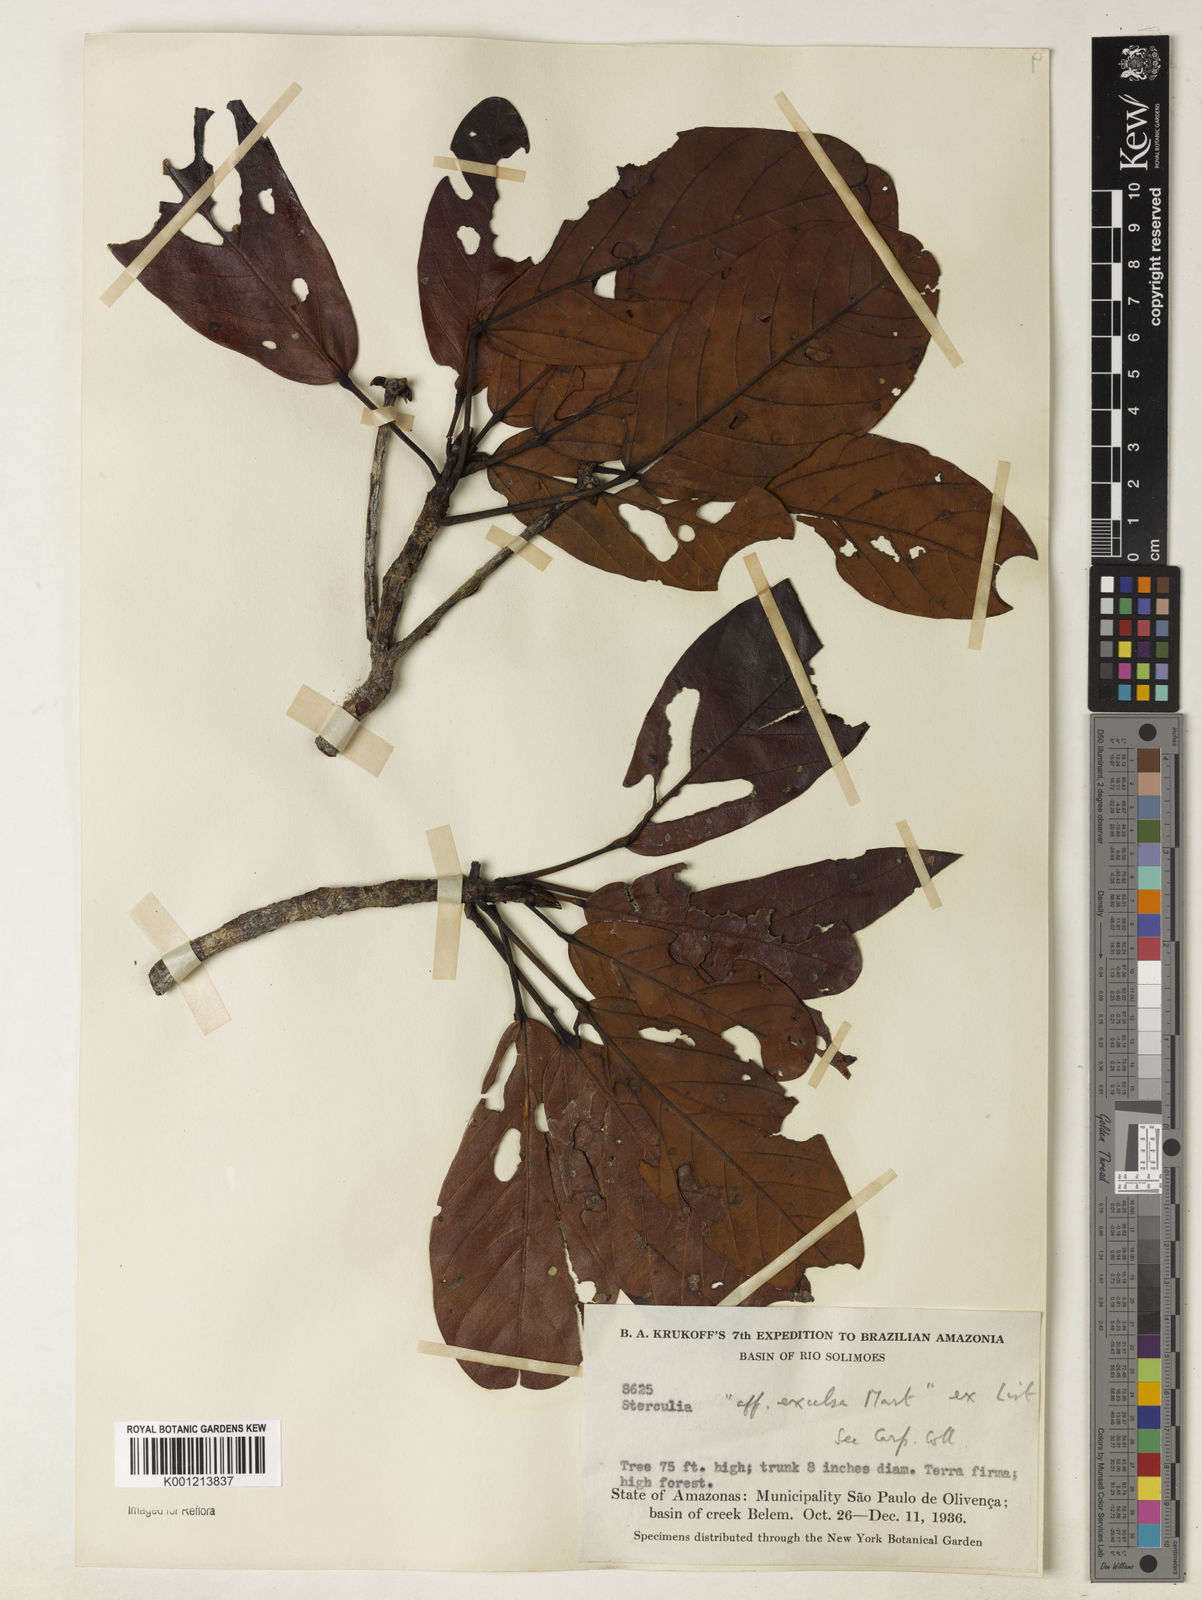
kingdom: Plantae
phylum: Tracheophyta
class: Magnoliopsida
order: Malvales
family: Malvaceae
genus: Sterculia
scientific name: Sterculia excelsa
